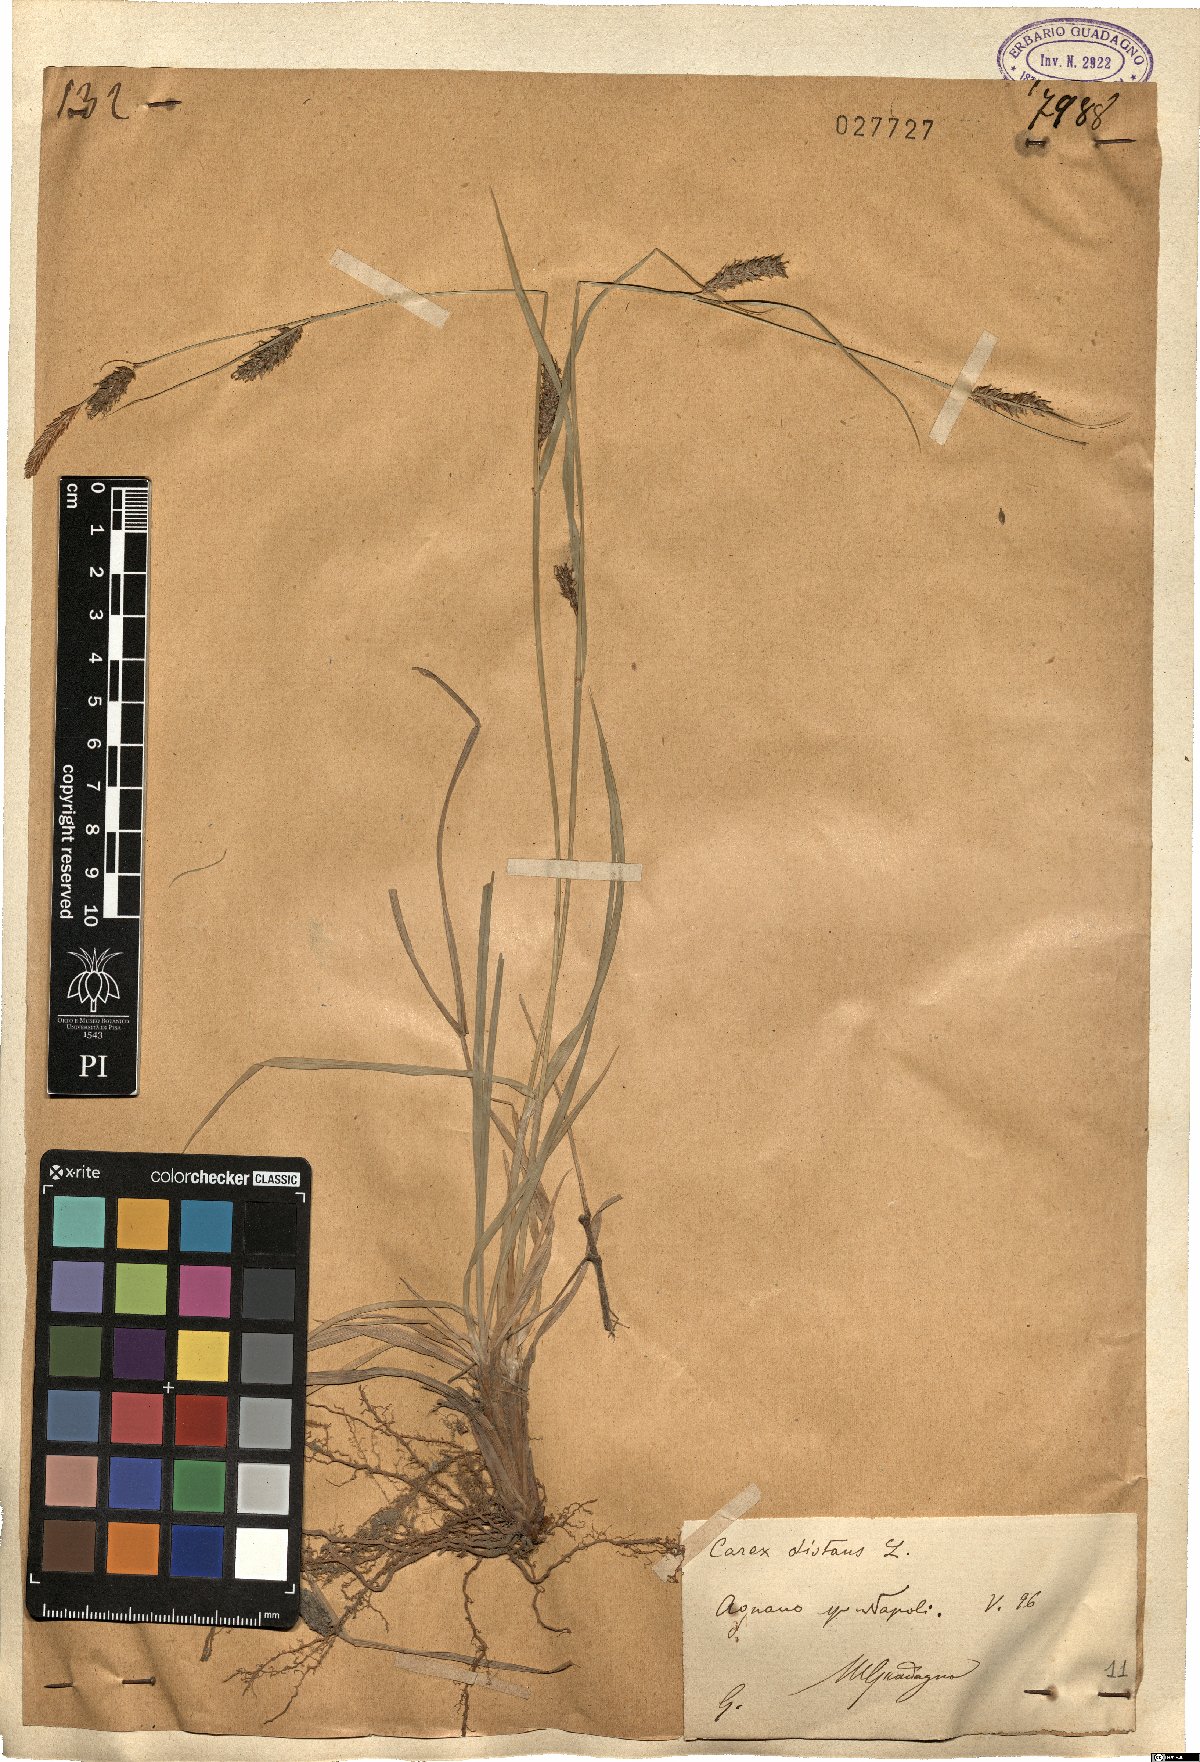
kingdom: Plantae
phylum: Tracheophyta
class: Liliopsida
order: Poales
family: Cyperaceae
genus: Carex
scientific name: Carex distans
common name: Distant sedge
